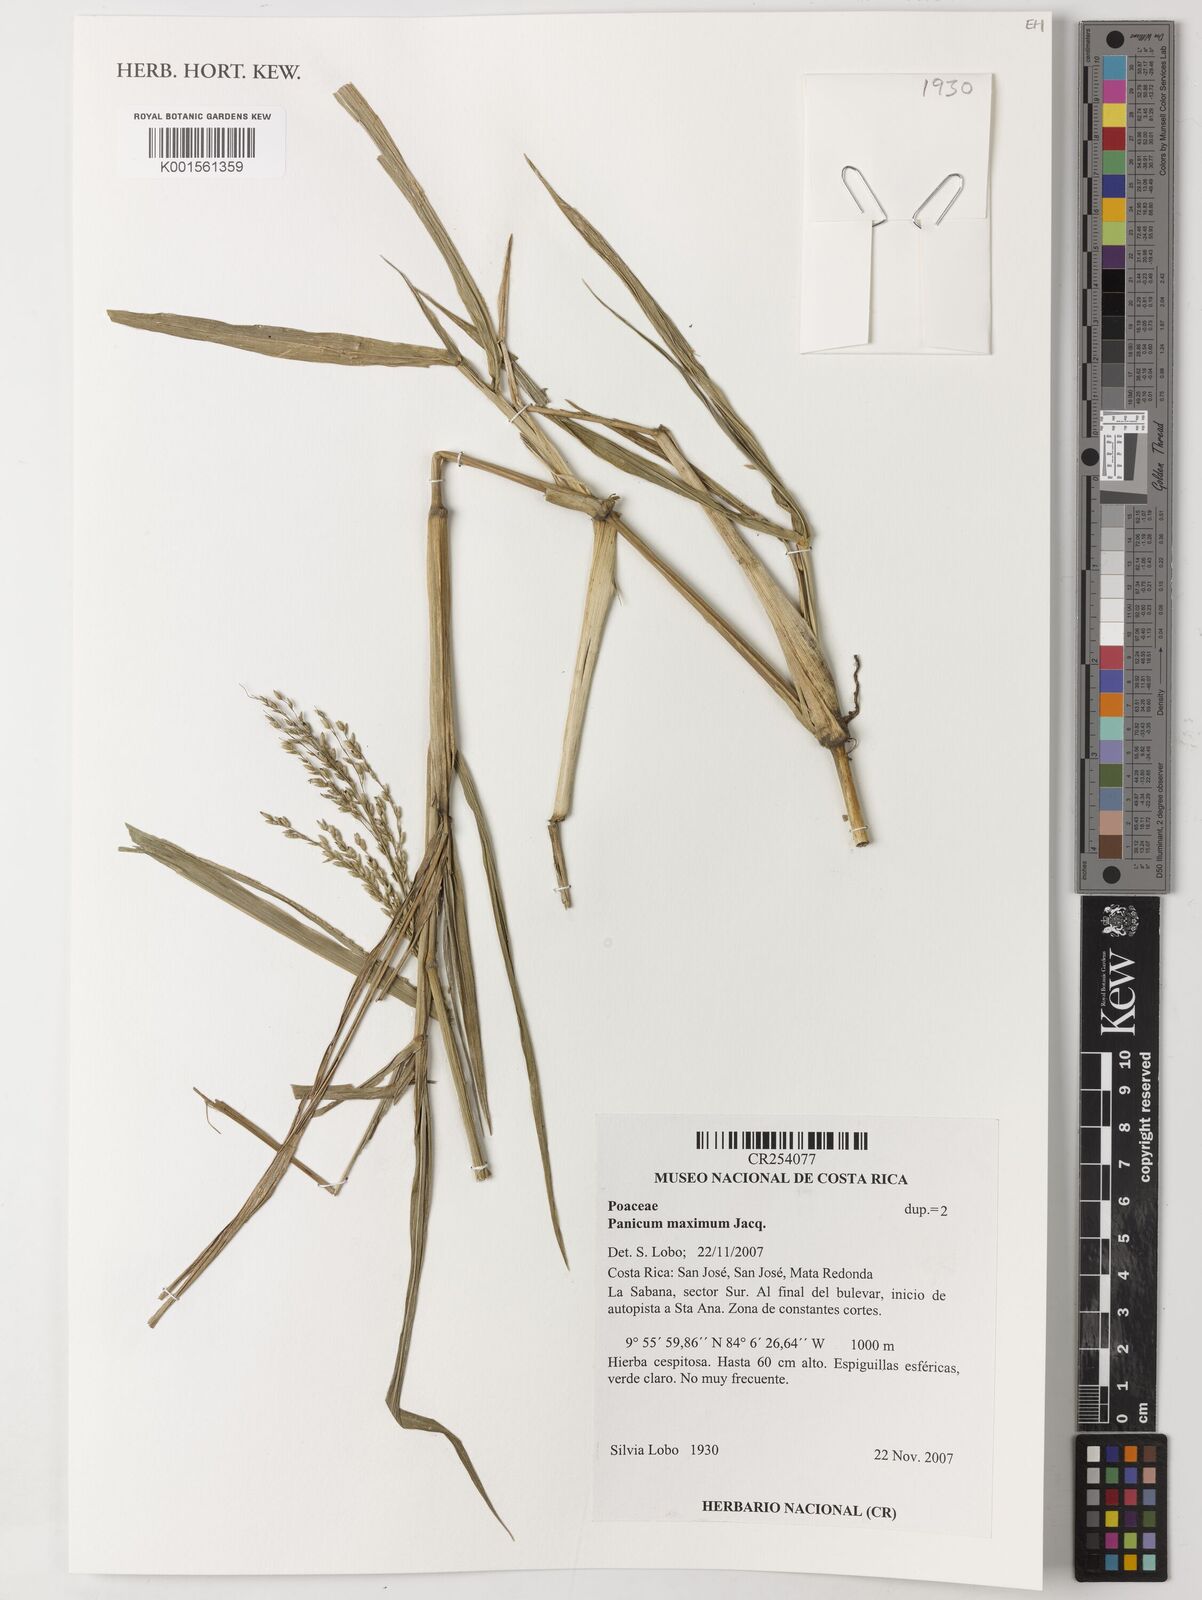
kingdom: Plantae
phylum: Tracheophyta
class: Liliopsida
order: Poales
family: Poaceae
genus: Megathyrsus
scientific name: Megathyrsus maximus
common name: Guineagrass
